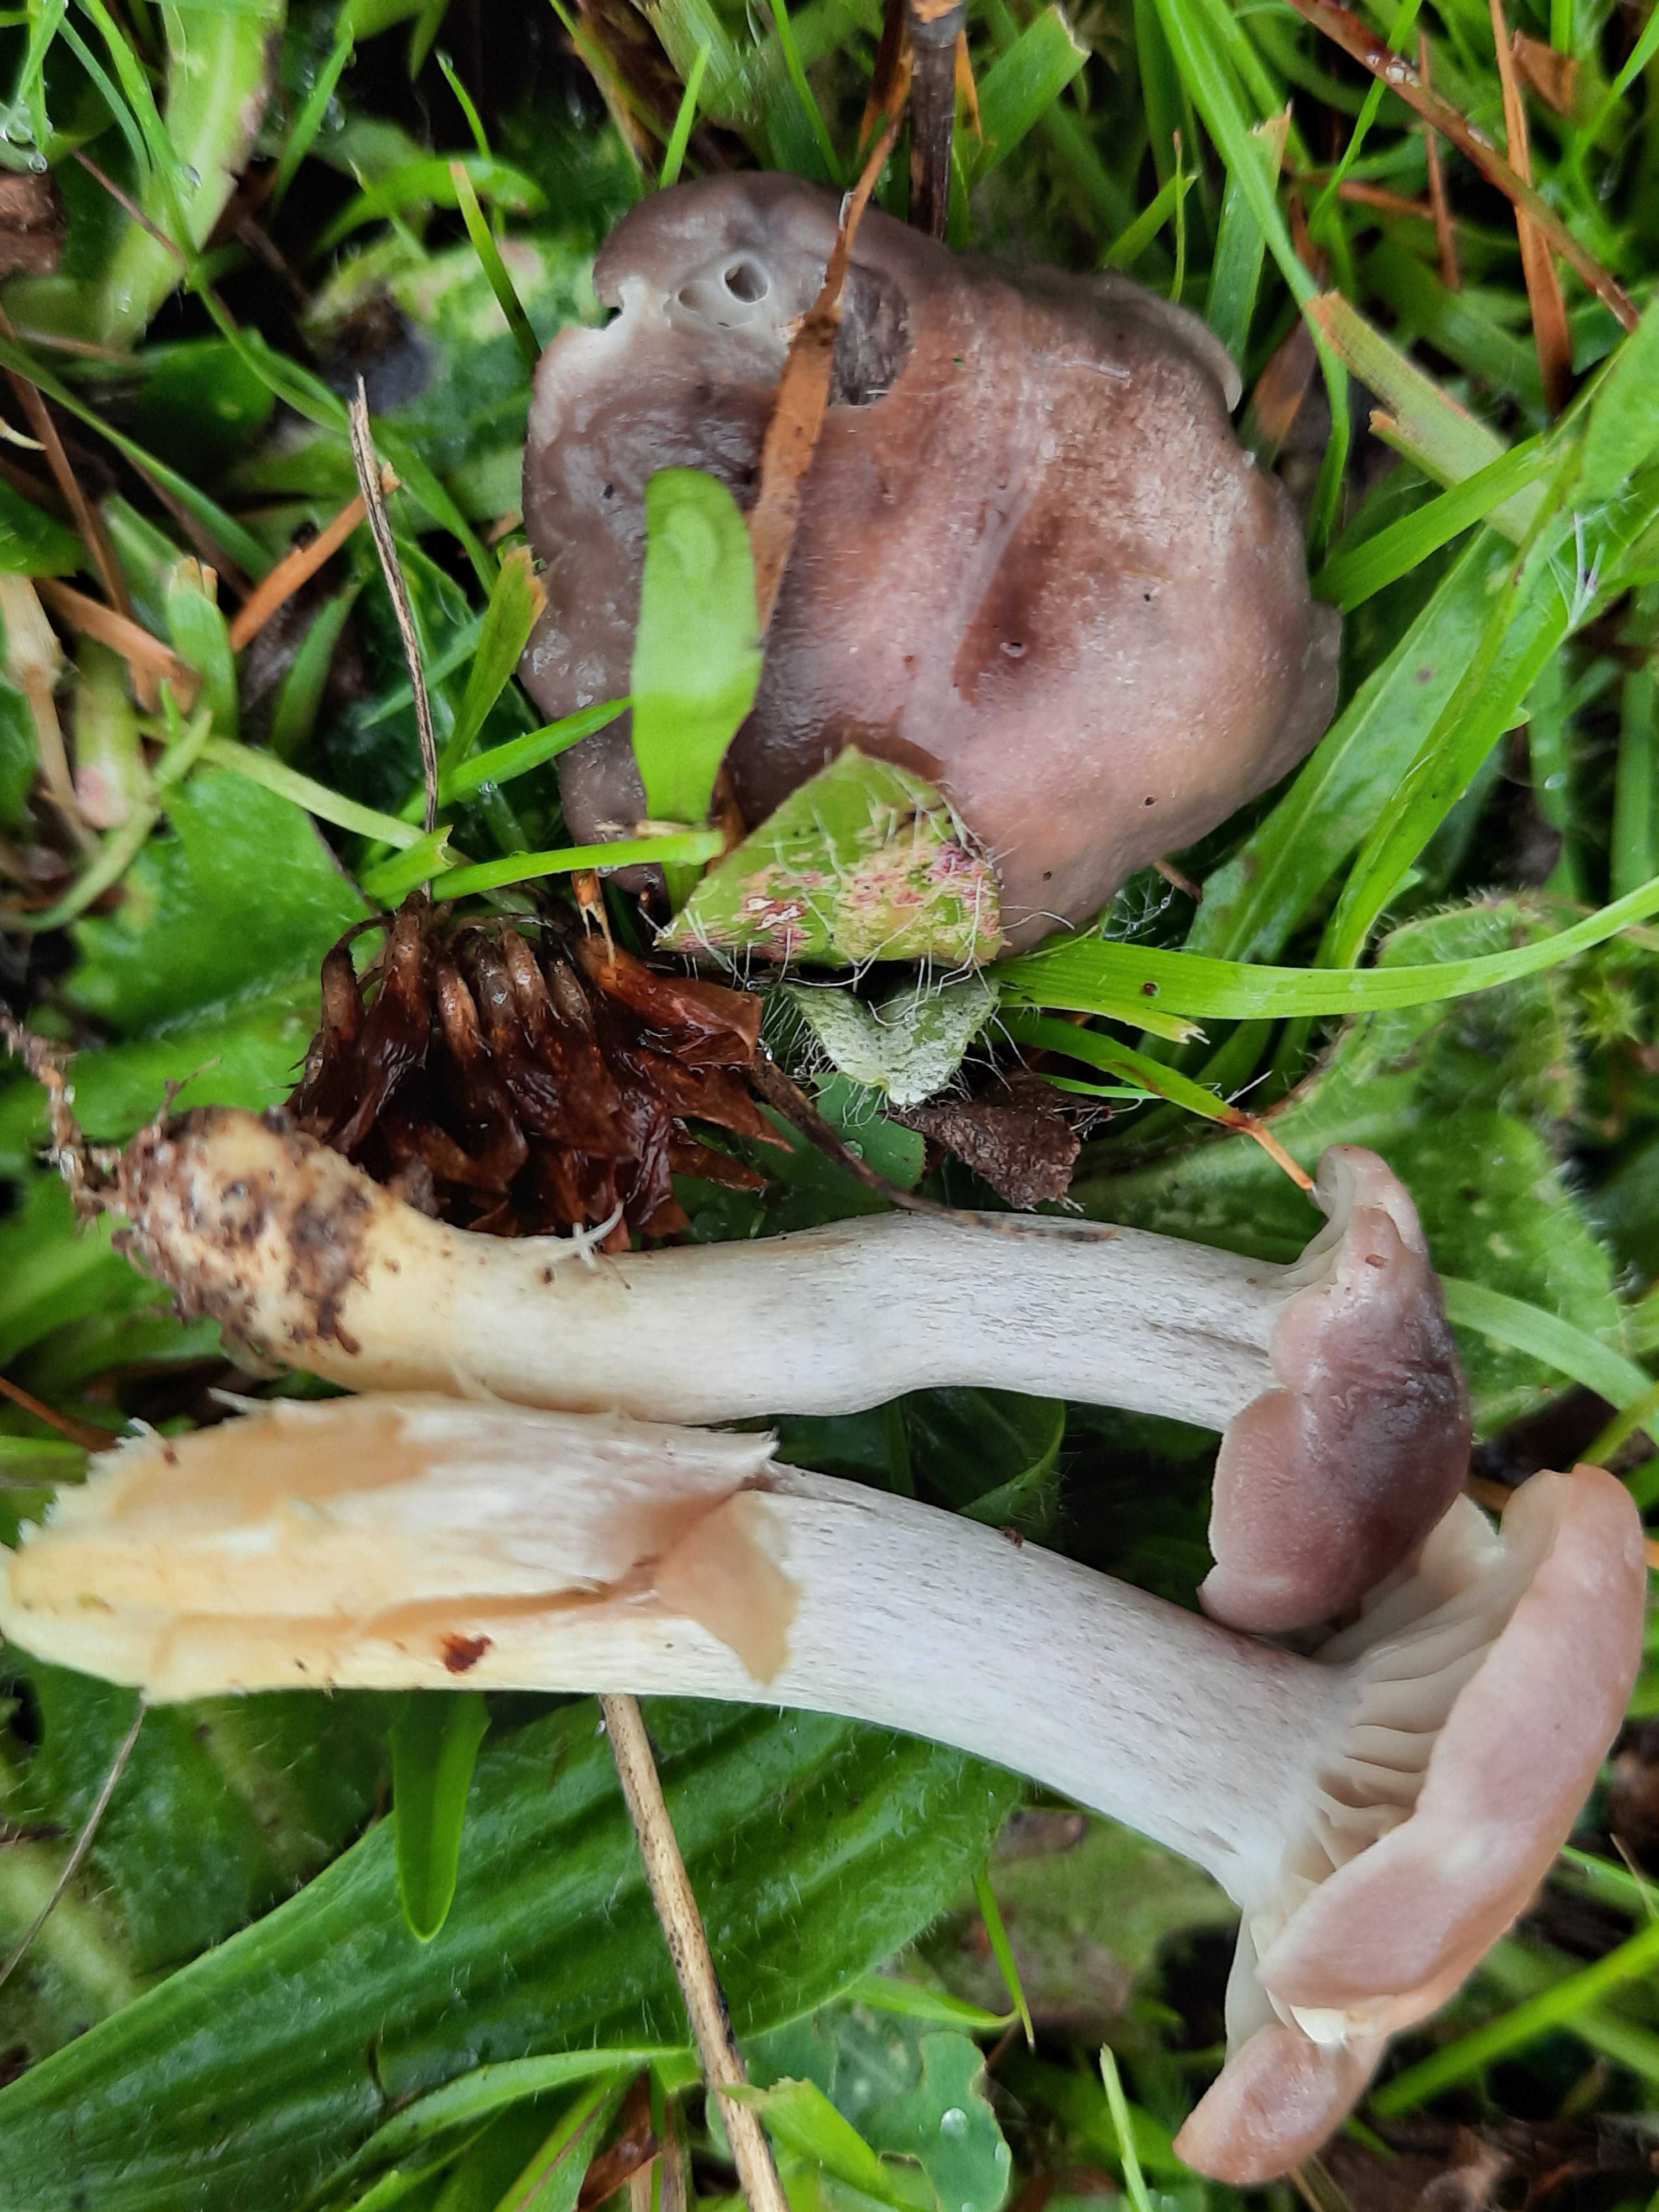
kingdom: Fungi
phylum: Basidiomycota
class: Agaricomycetes
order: Agaricales
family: Hygrophoraceae
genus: Cuphophyllus
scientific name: Cuphophyllus flavipesoides
